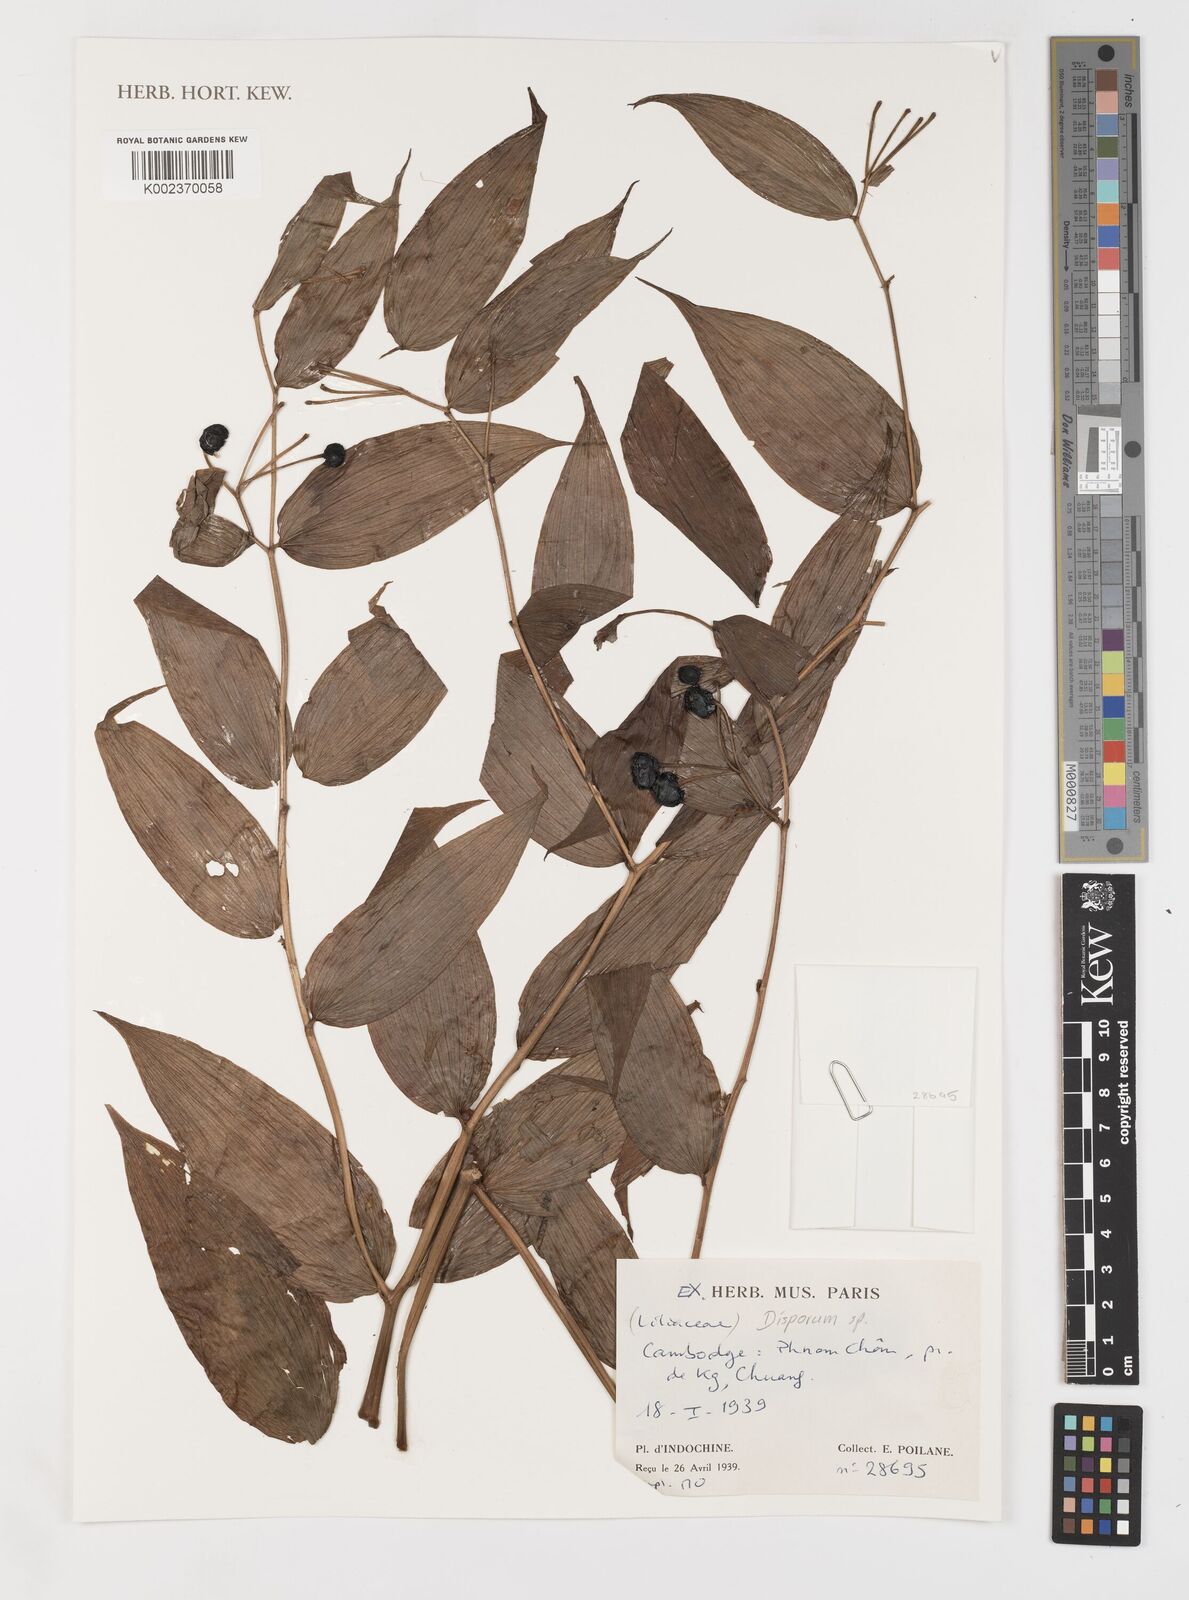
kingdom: Plantae
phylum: Tracheophyta
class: Liliopsida
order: Liliales
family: Colchicaceae
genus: Disporum
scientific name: Disporum
